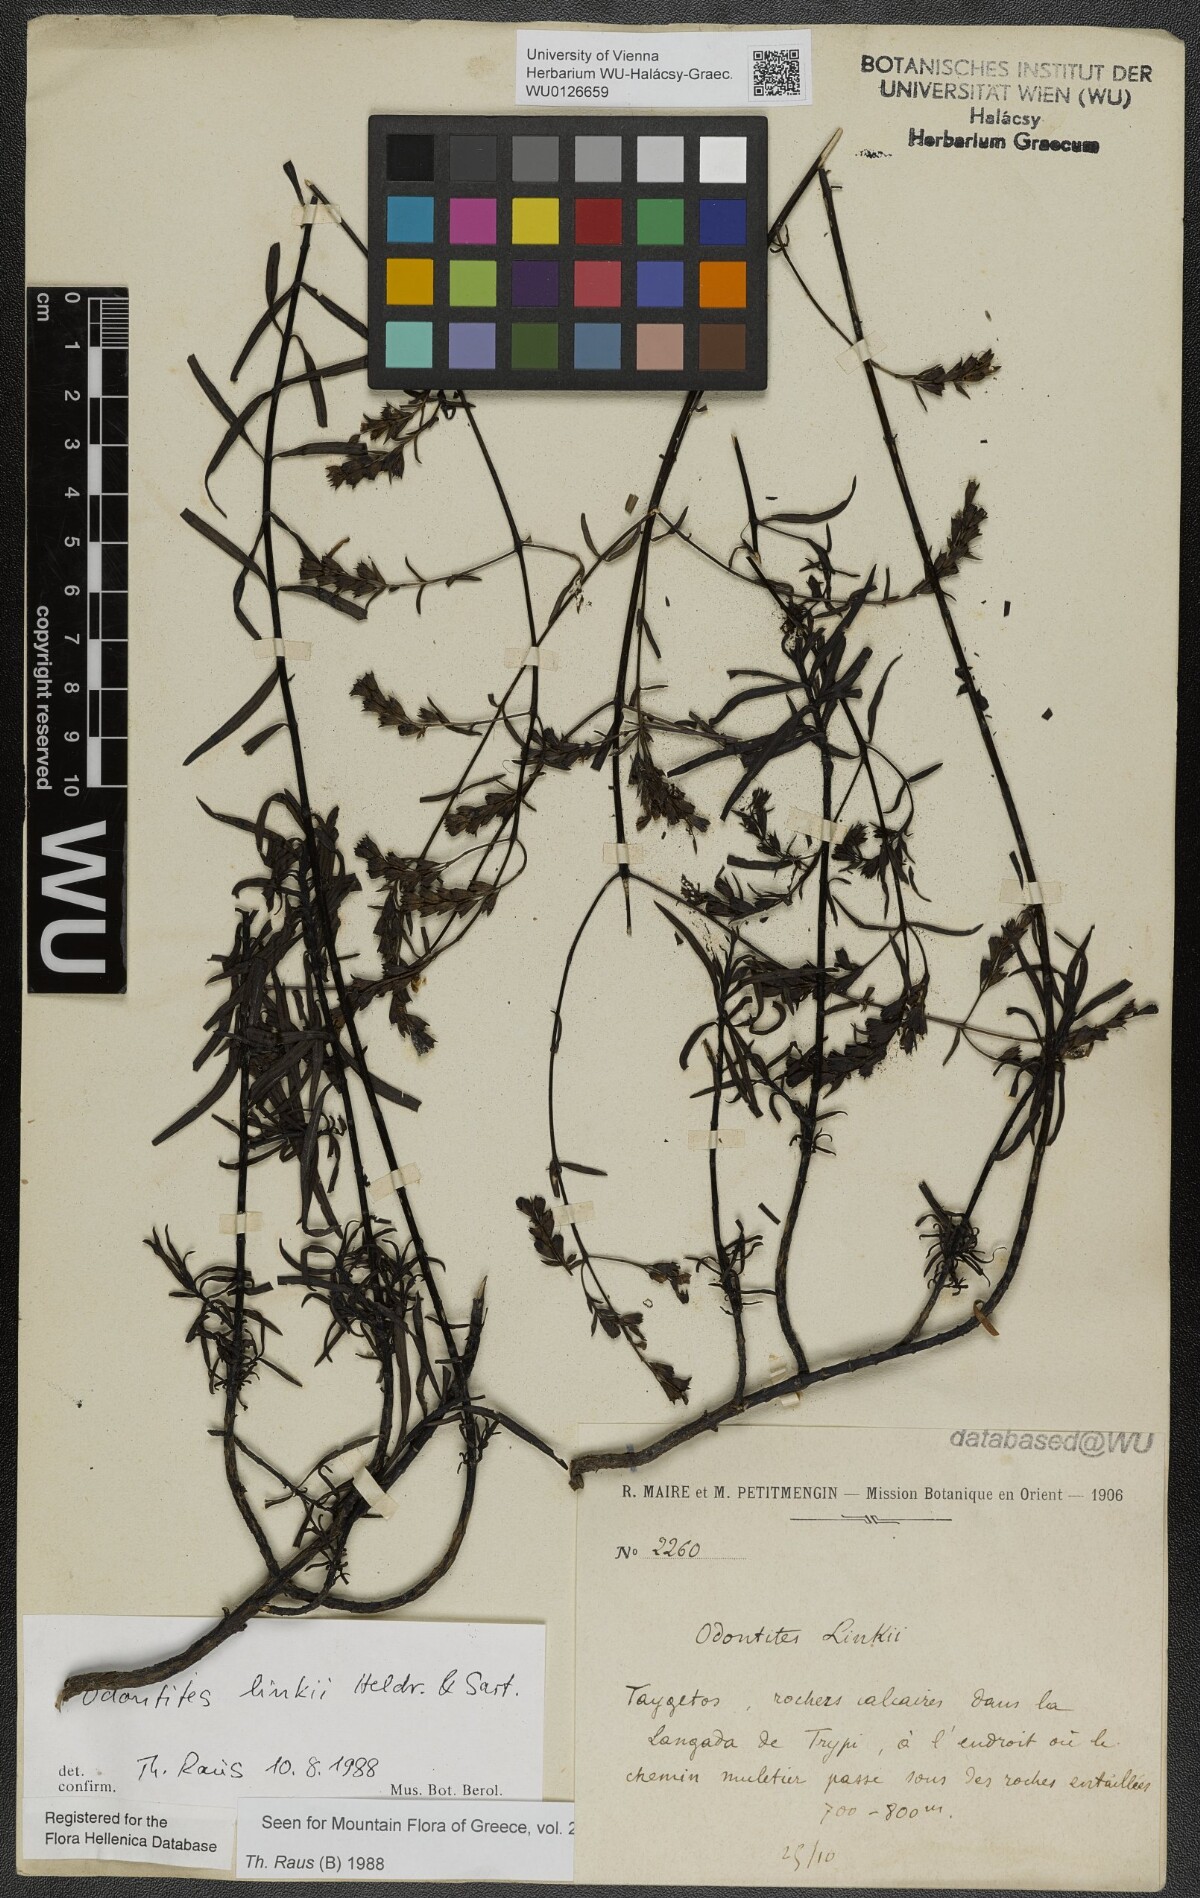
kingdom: Plantae
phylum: Tracheophyta
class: Magnoliopsida
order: Lamiales
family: Scrophulariaceae
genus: Odontites
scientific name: Odontites linkii
